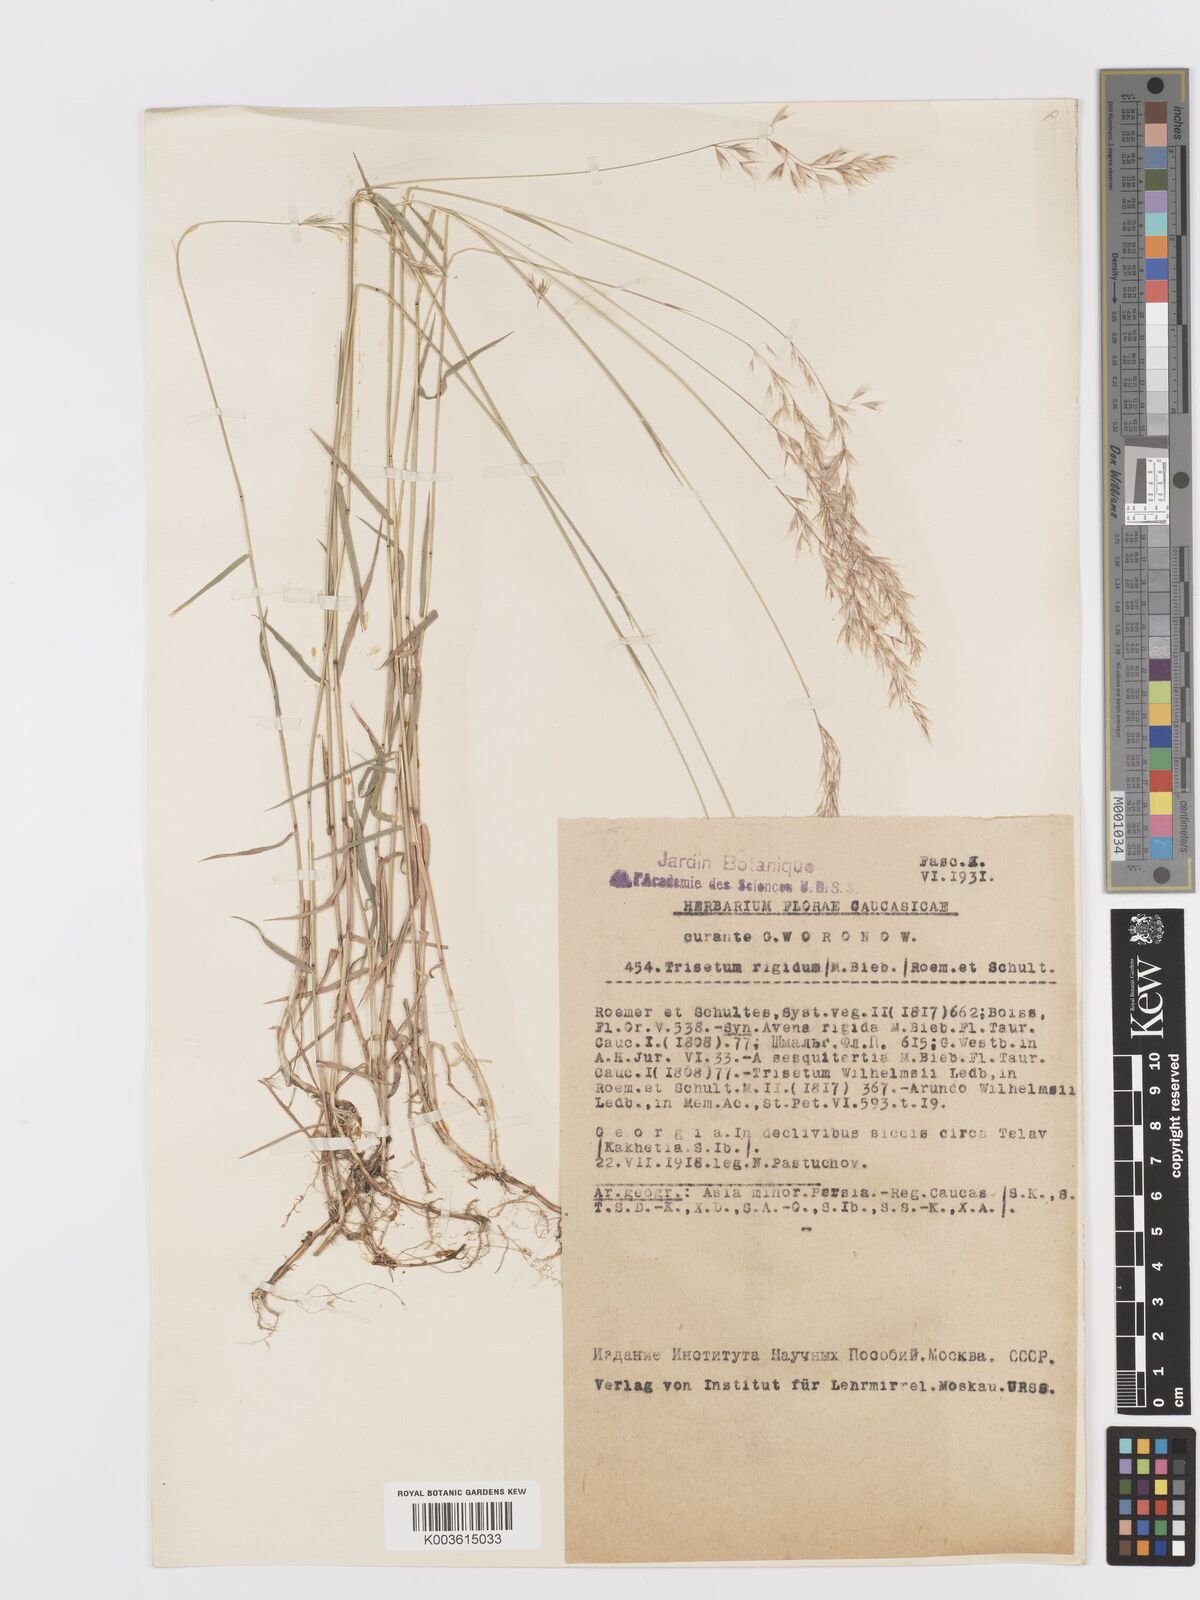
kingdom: Plantae
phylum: Tracheophyta
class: Liliopsida
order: Poales
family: Poaceae
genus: Trisetum
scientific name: Trisetum rigidum
